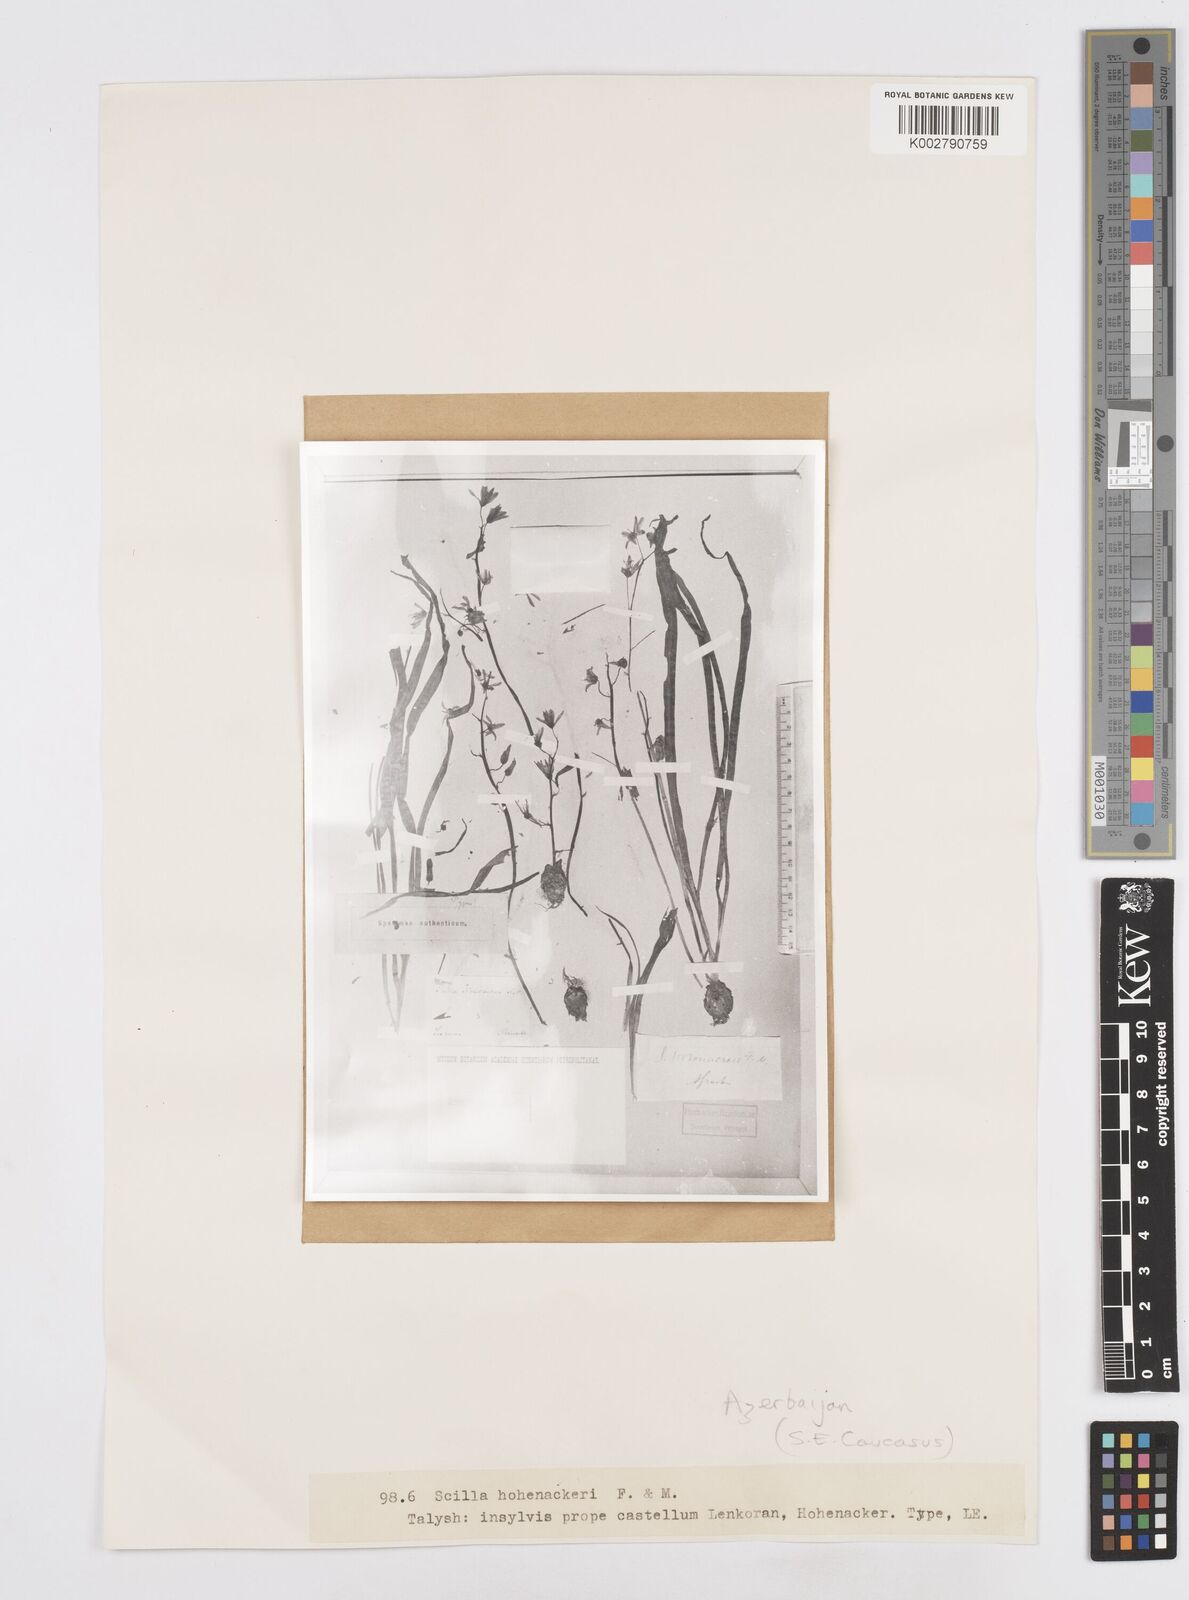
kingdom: Plantae
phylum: Tracheophyta
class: Liliopsida
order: Asparagales
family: Asparagaceae
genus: Fessia
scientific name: Fessia hohenackeri
